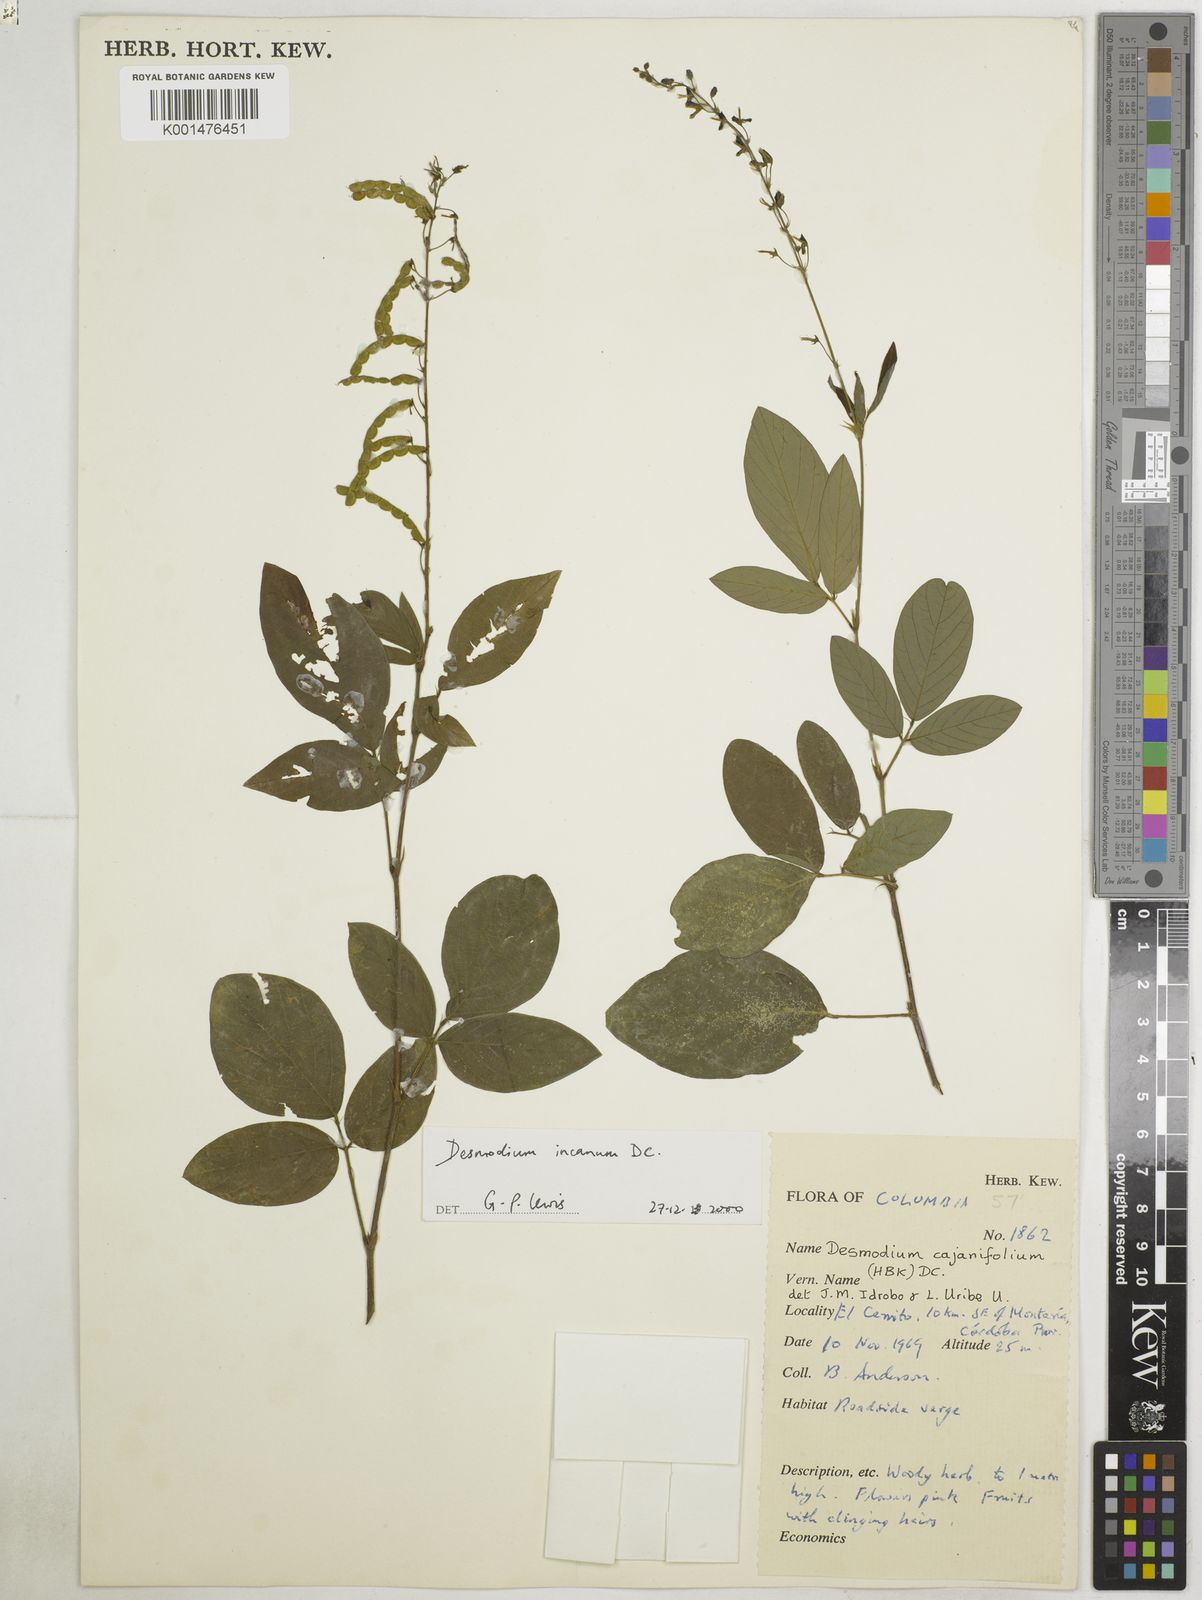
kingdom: Plantae
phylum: Tracheophyta
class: Magnoliopsida
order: Fabales
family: Fabaceae
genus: Desmodium
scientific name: Desmodium incanum
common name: Tickclover
